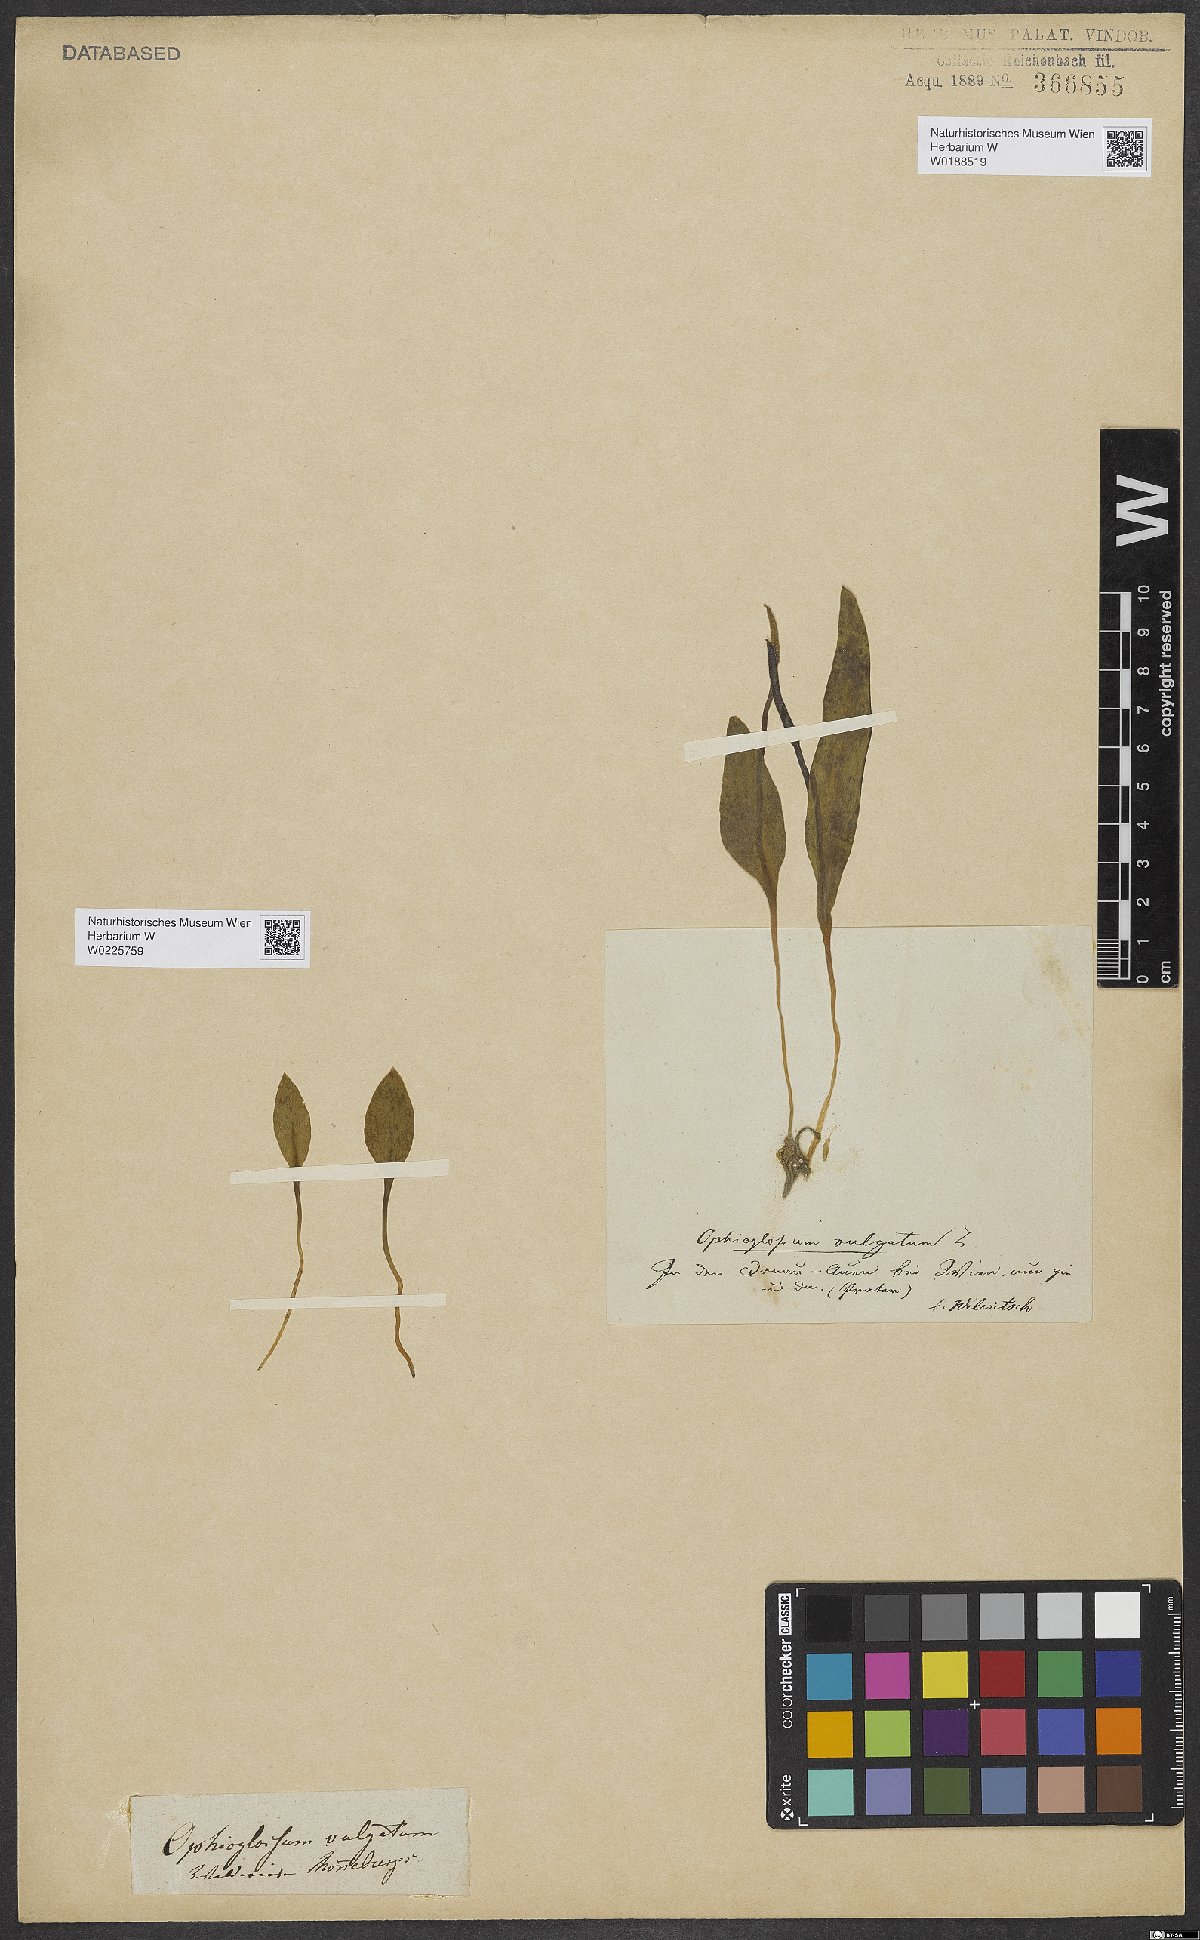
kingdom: Plantae
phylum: Tracheophyta
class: Polypodiopsida
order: Ophioglossales
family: Ophioglossaceae
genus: Ophioglossum
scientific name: Ophioglossum vulgatum
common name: Adder's-tongue
